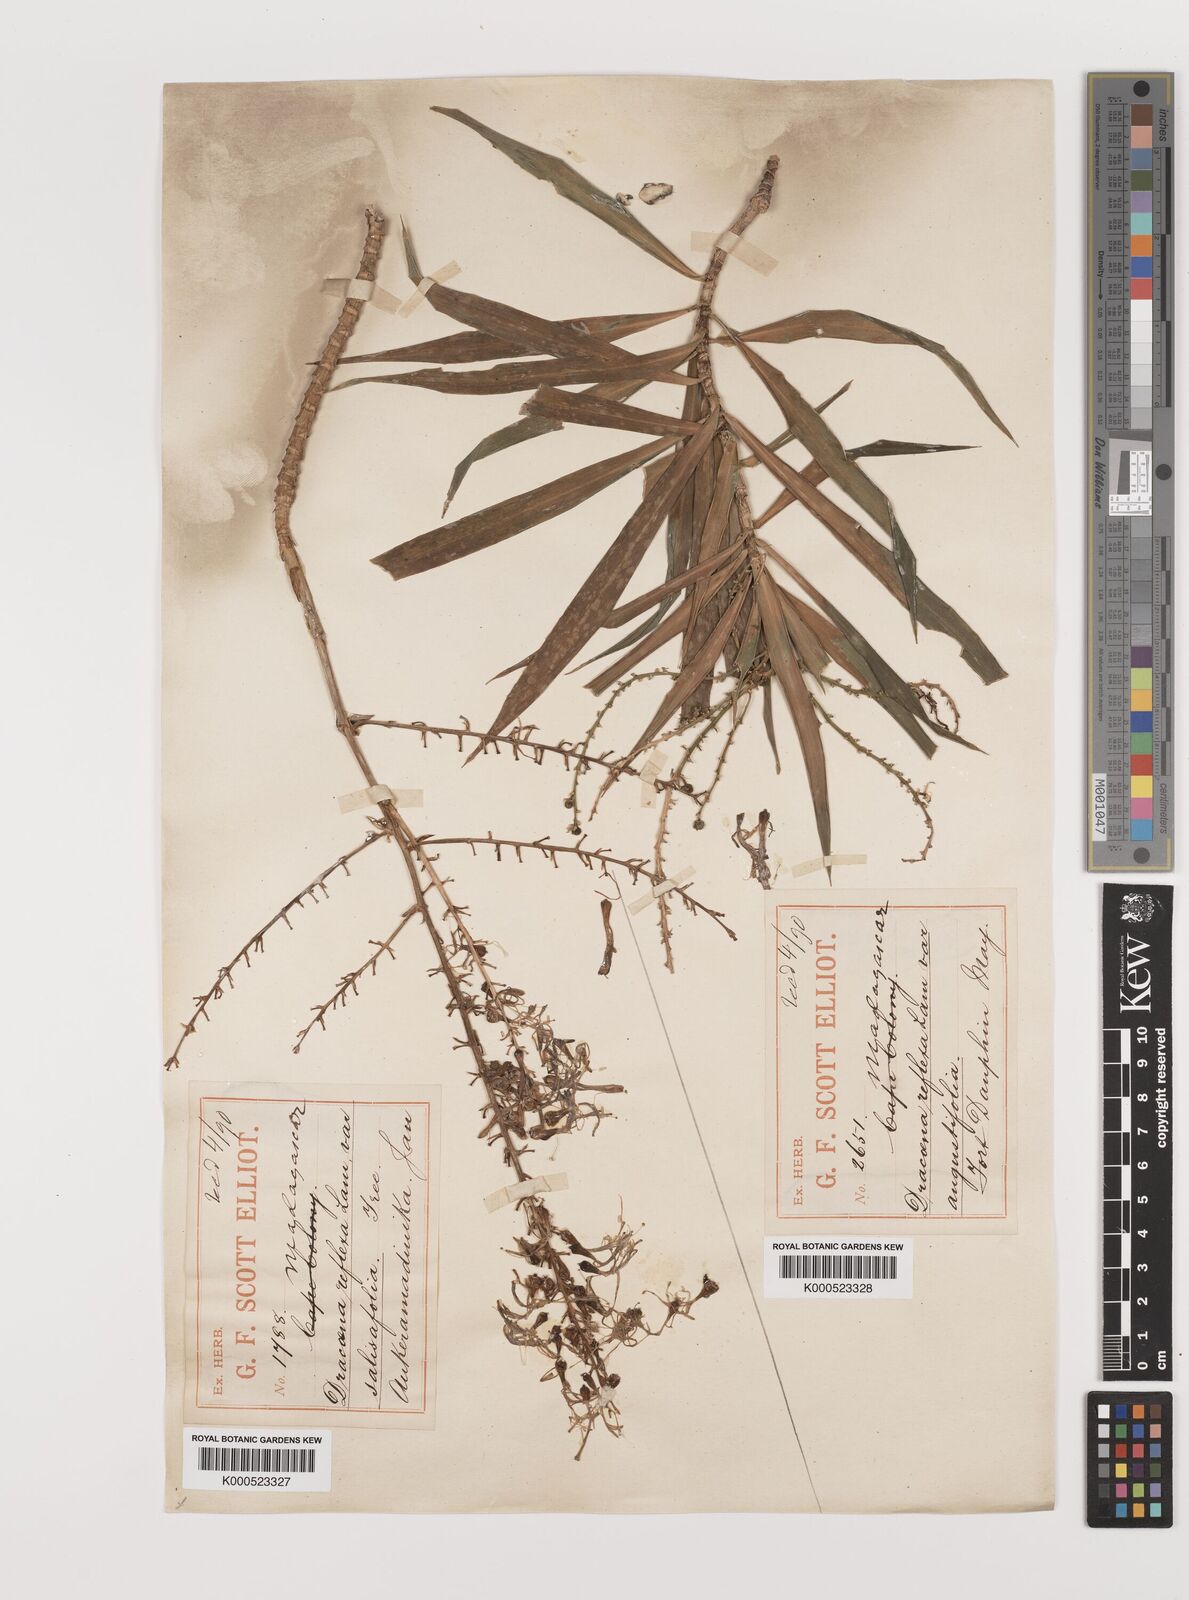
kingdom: Plantae
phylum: Tracheophyta
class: Liliopsida
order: Asparagales
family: Asparagaceae
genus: Dracaena
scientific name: Dracaena reflexa
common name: Song-of-india
